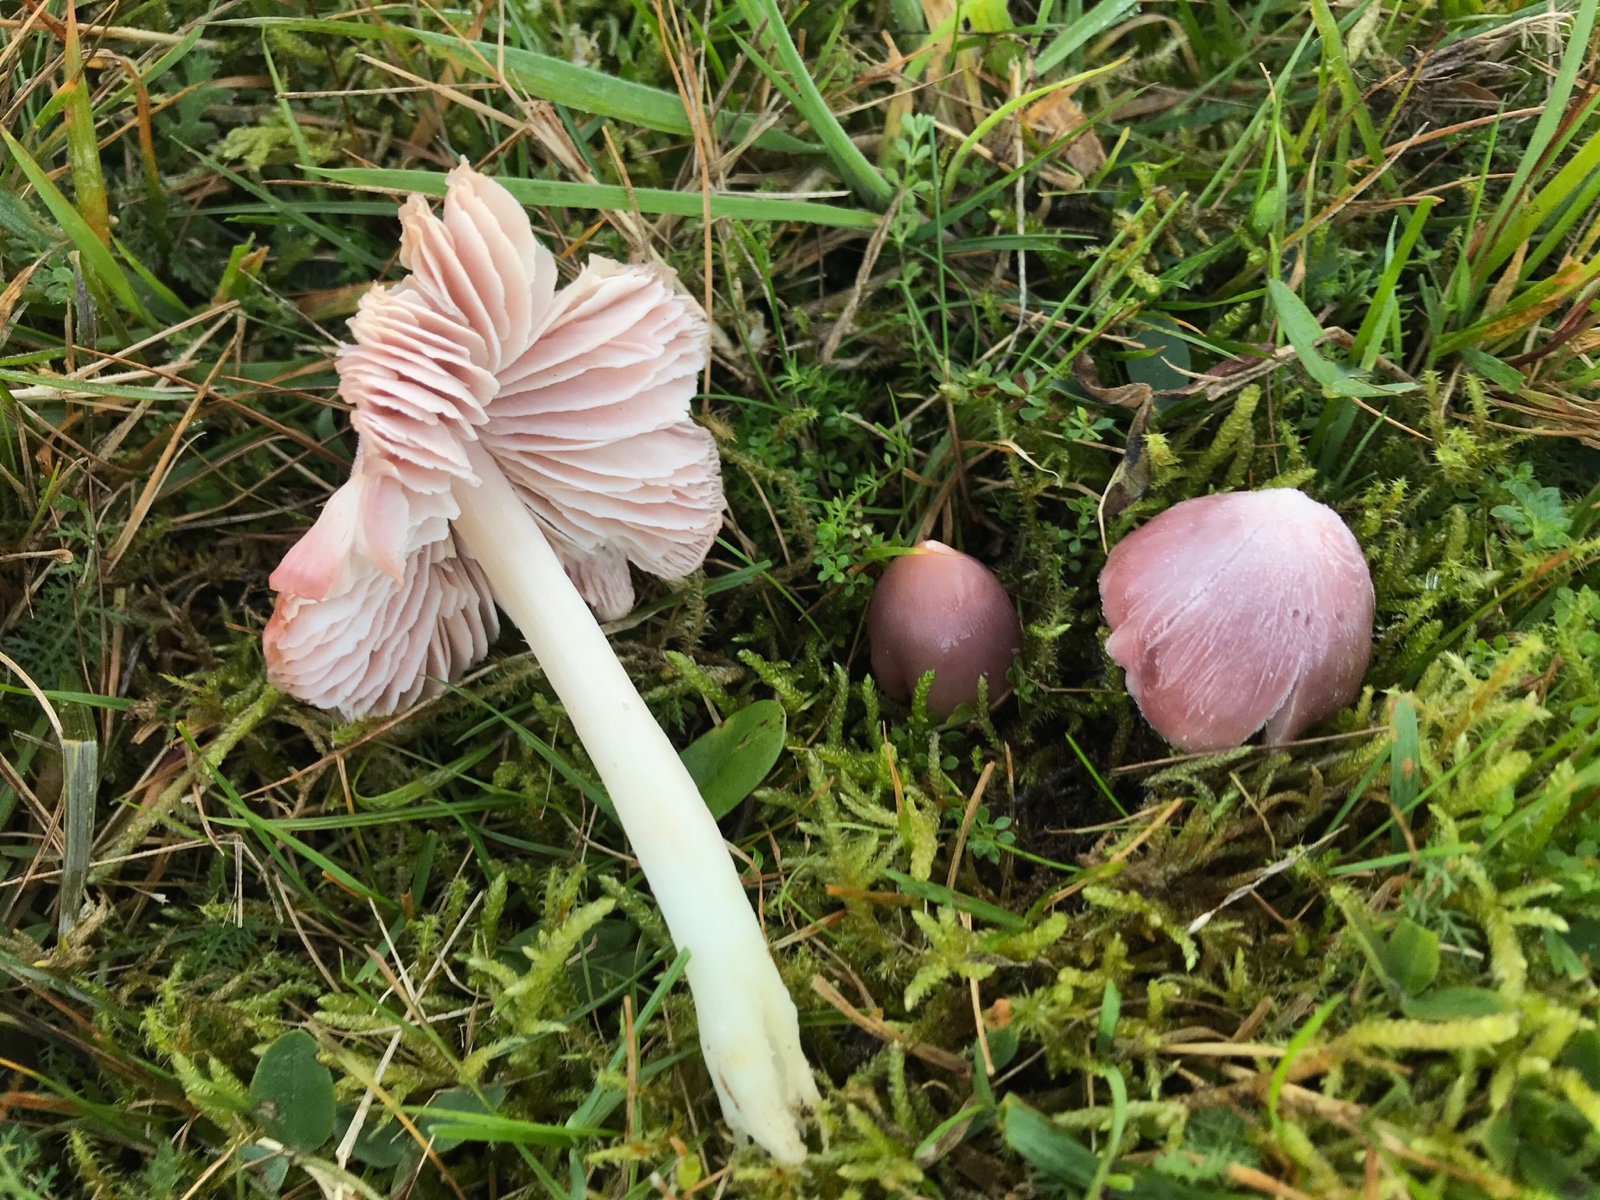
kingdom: Fungi
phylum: Basidiomycota
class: Agaricomycetes
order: Agaricales
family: Hygrophoraceae
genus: Porpolomopsis
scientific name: Porpolomopsis calyptriformis
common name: rosenrød vokshat
